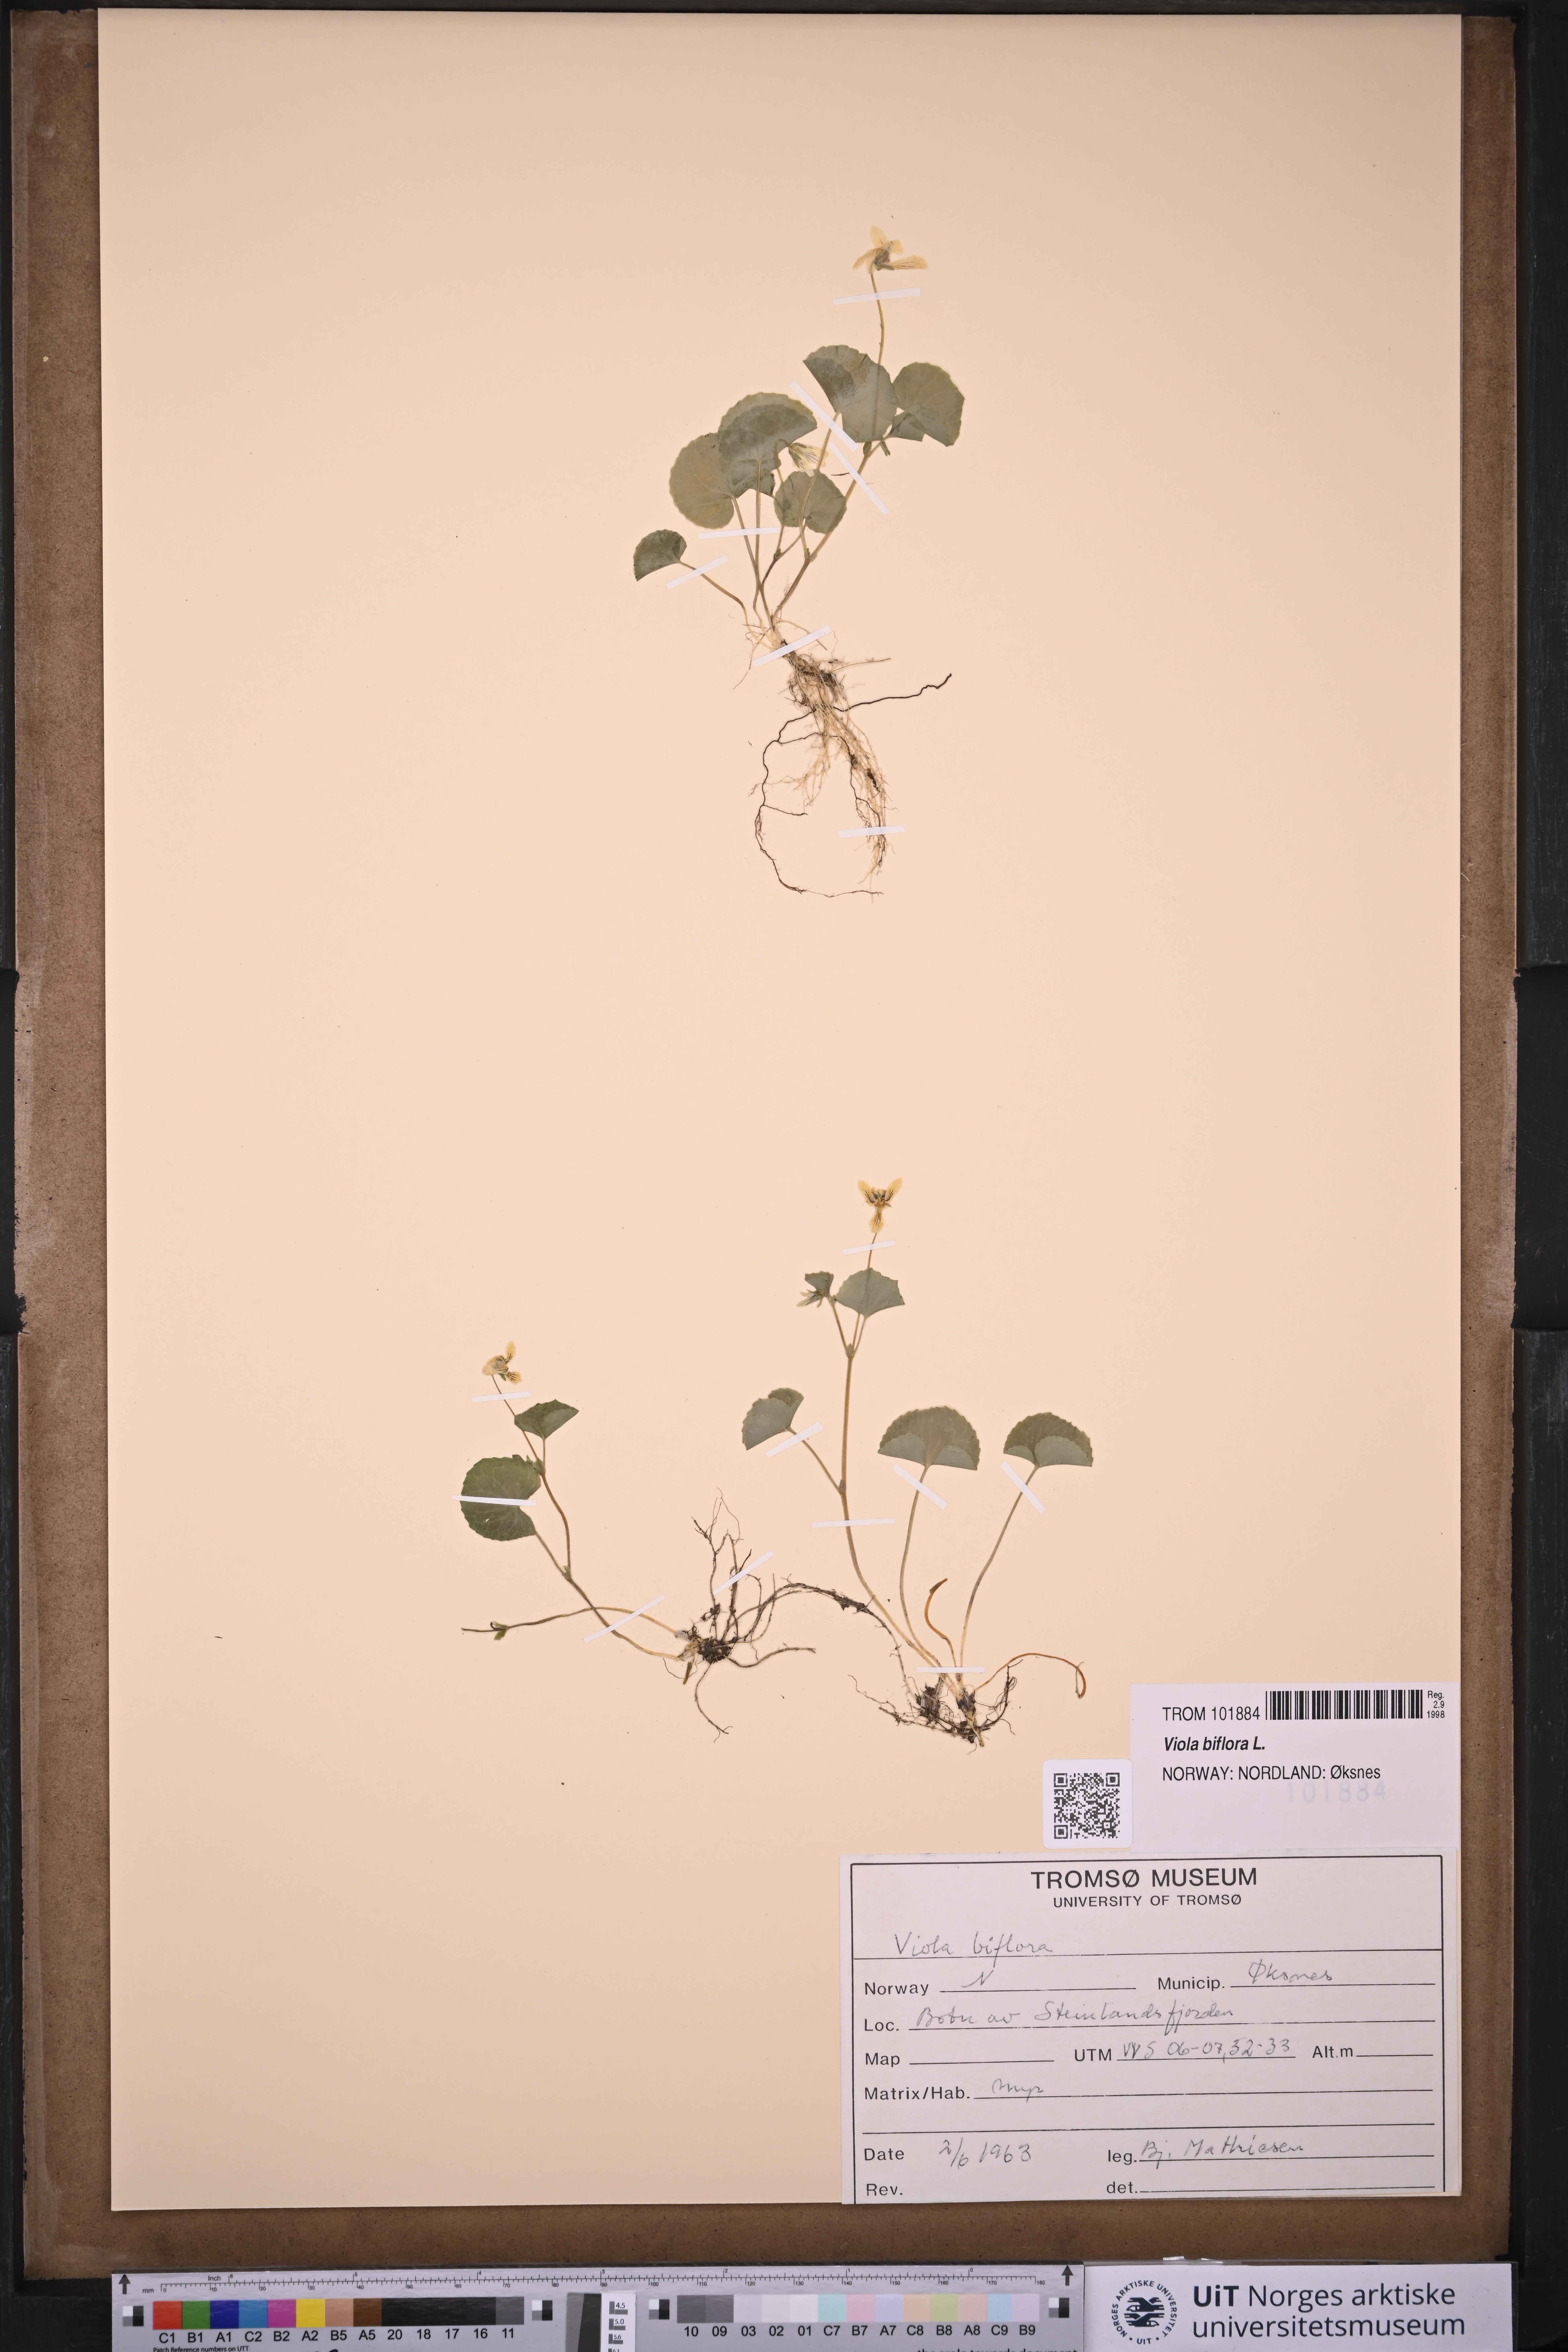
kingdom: Plantae
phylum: Tracheophyta
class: Magnoliopsida
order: Malpighiales
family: Violaceae
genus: Viola
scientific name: Viola biflora
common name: Alpine yellow violet
